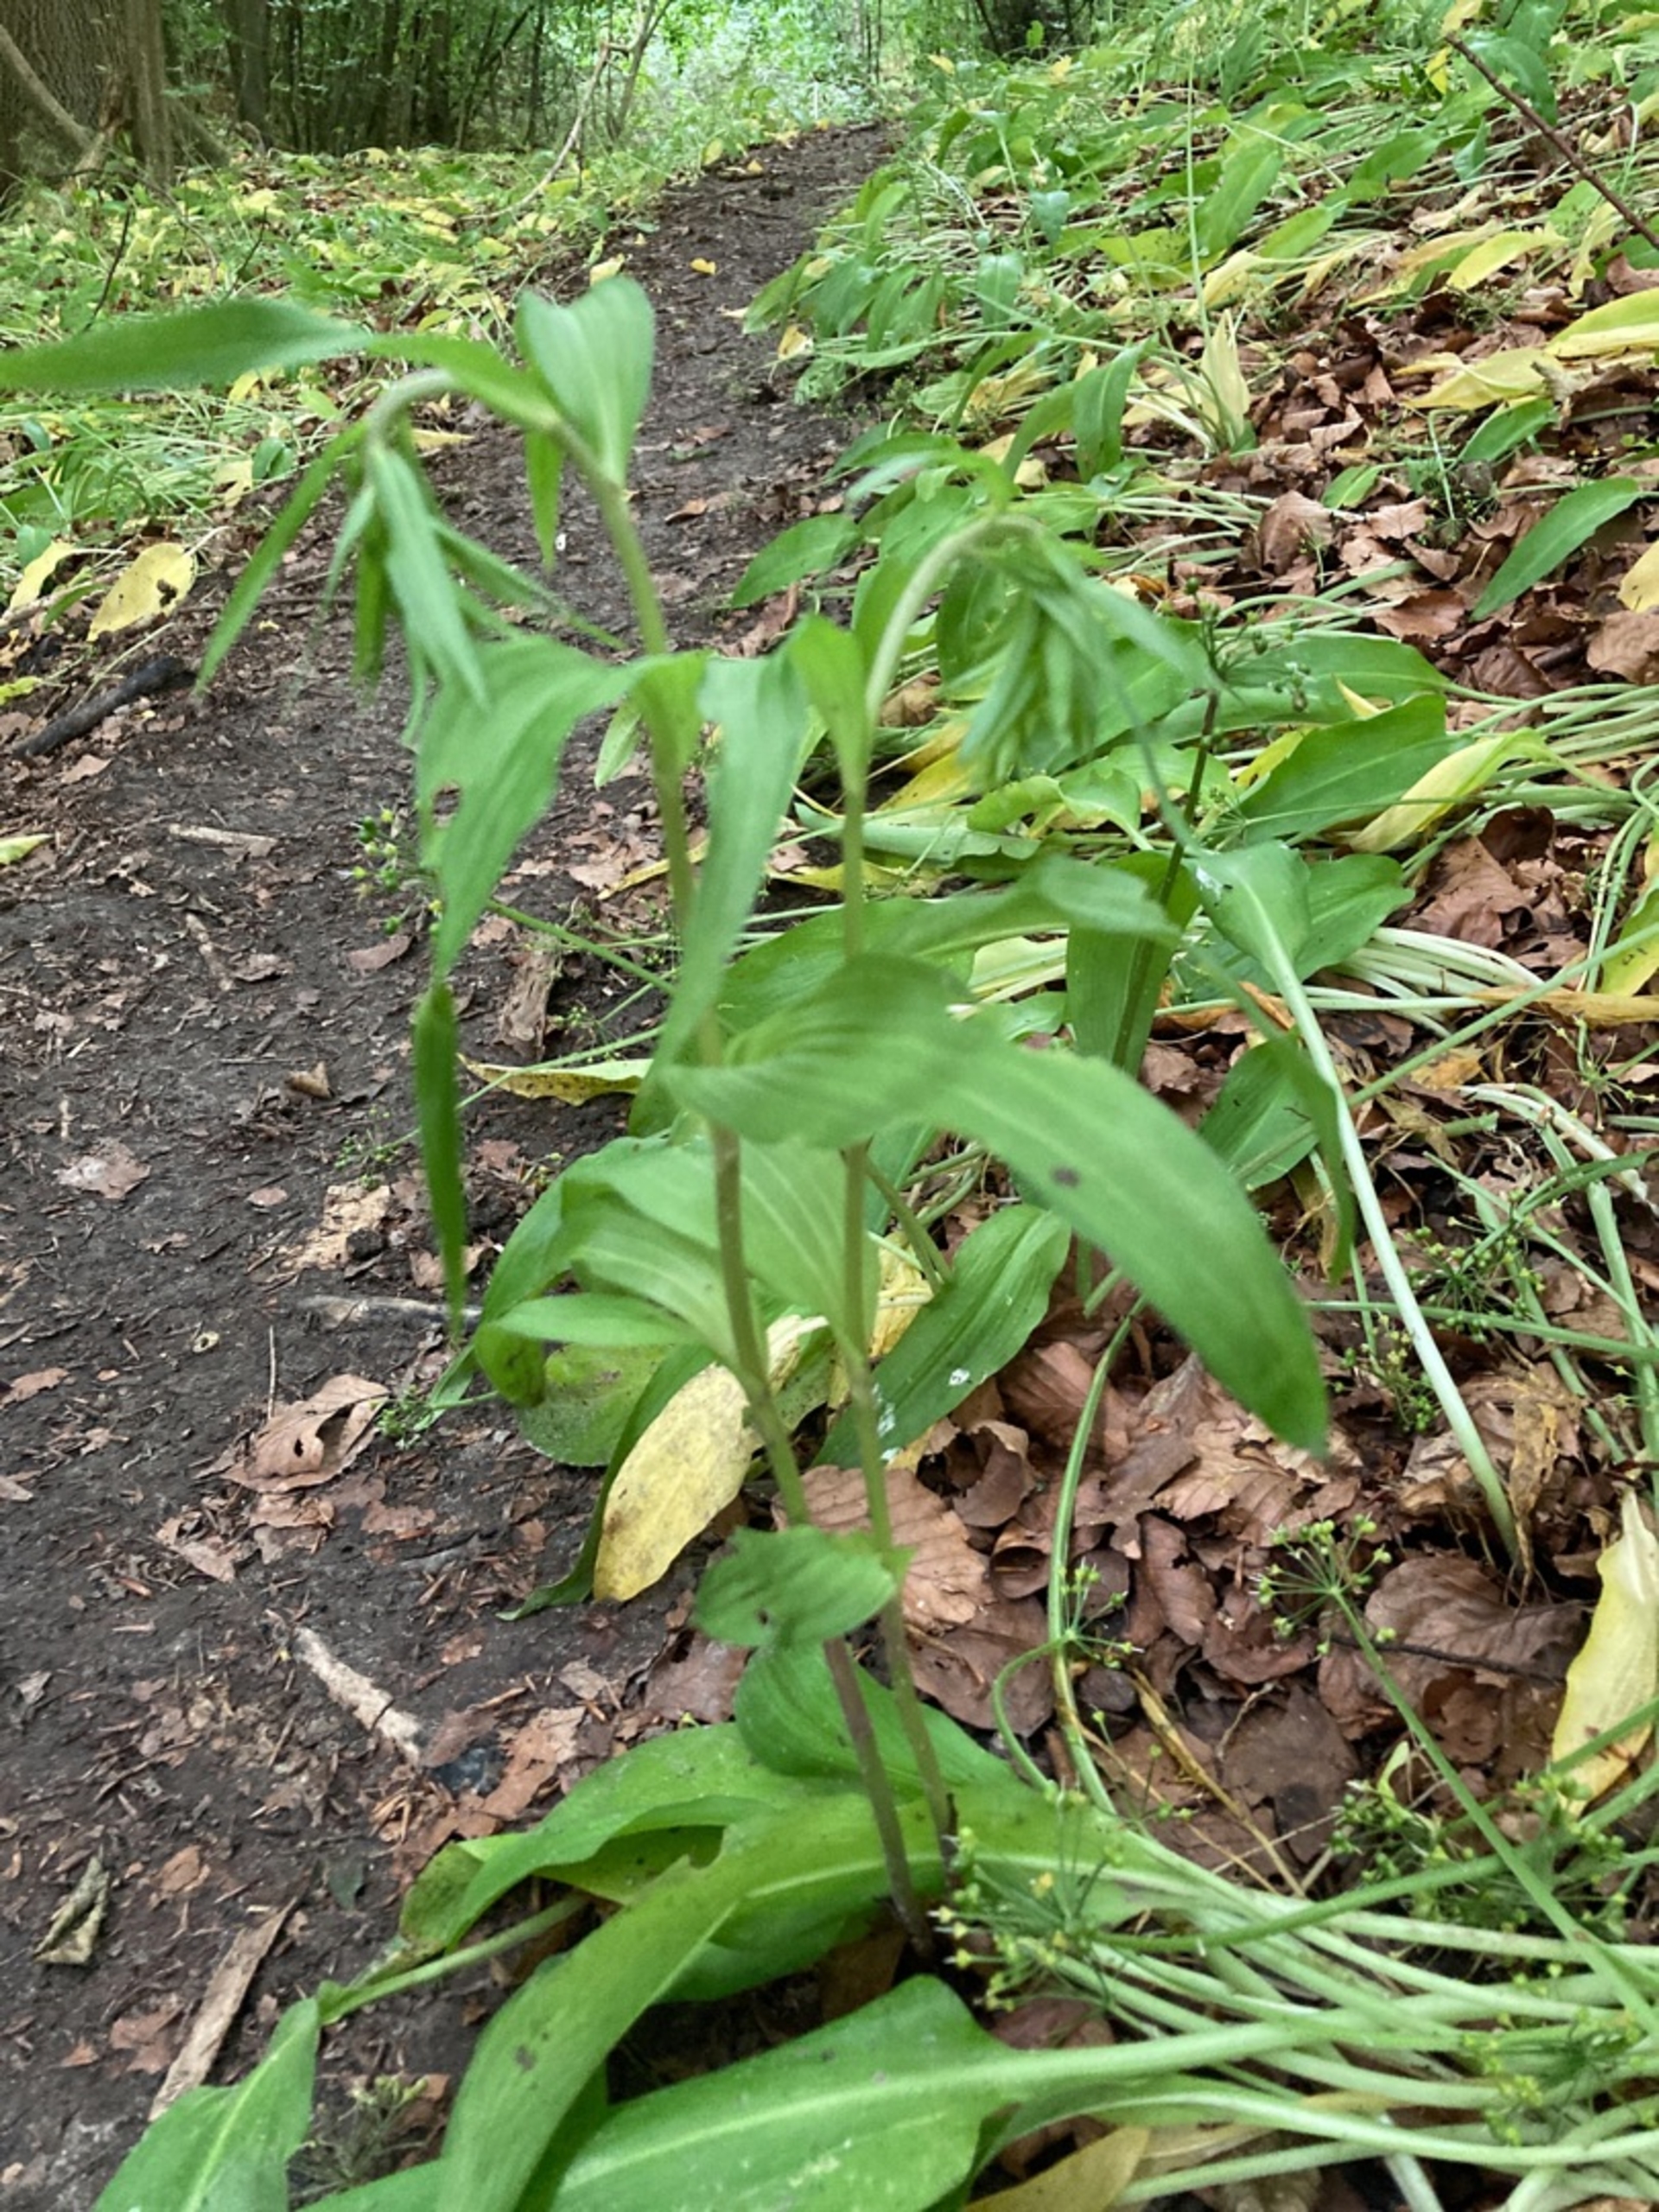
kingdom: Plantae
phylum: Tracheophyta
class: Liliopsida
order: Asparagales
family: Orchidaceae
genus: Epipactis
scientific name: Epipactis helleborine
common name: Skov-hullæbe
